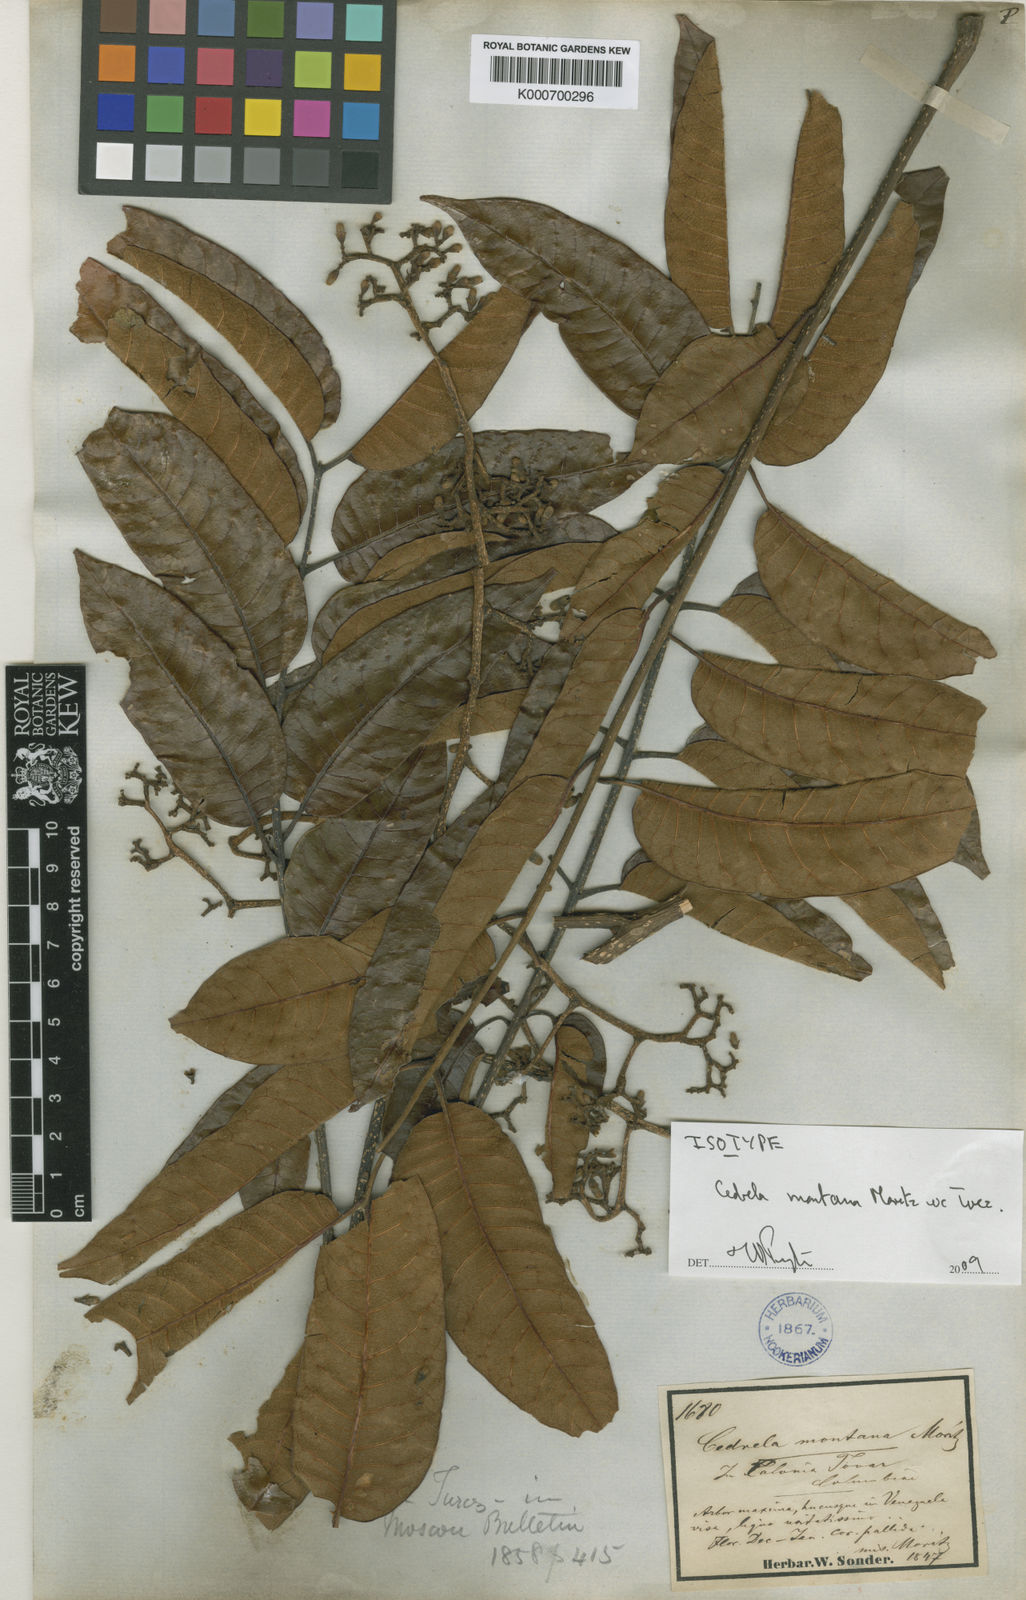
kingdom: Plantae
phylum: Tracheophyta
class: Magnoliopsida
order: Sapindales
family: Meliaceae
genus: Cedrela
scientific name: Cedrela
